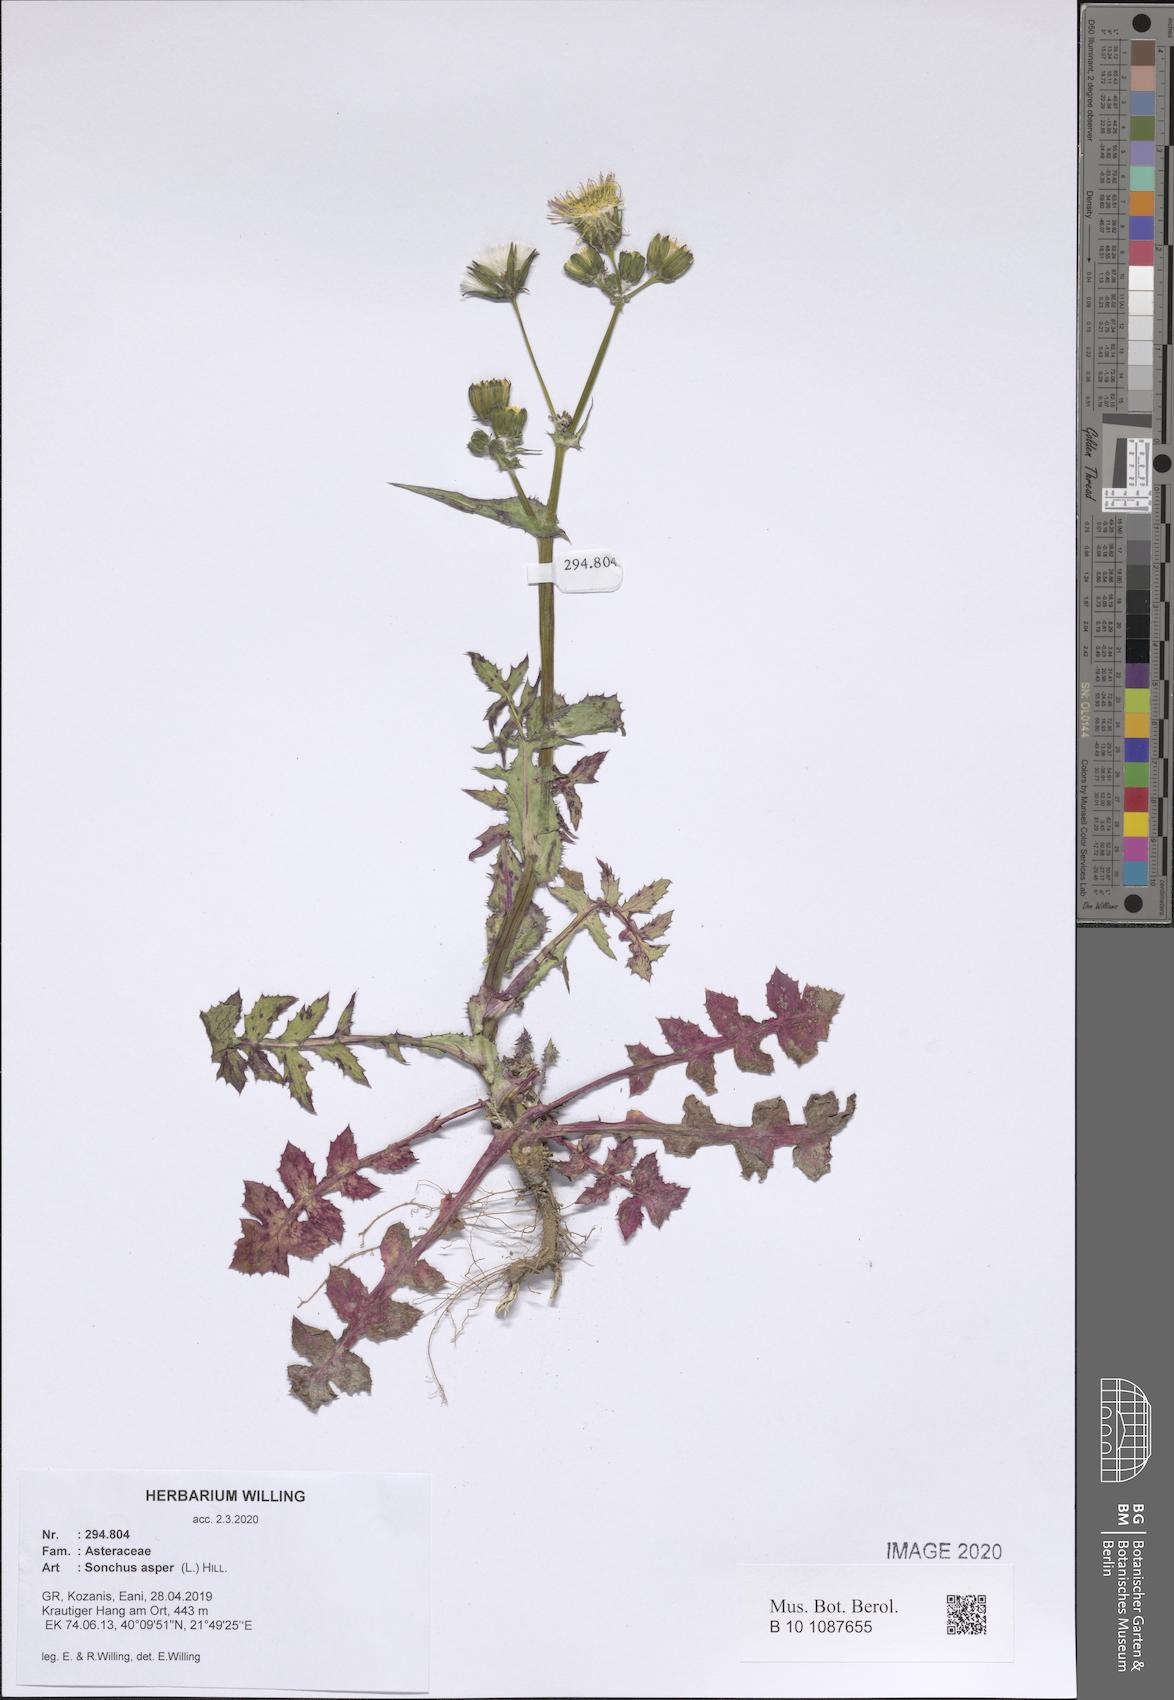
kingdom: Plantae
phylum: Tracheophyta
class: Magnoliopsida
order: Asterales
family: Asteraceae
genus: Sonchus
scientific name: Sonchus asper
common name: Prickly sow-thistle
